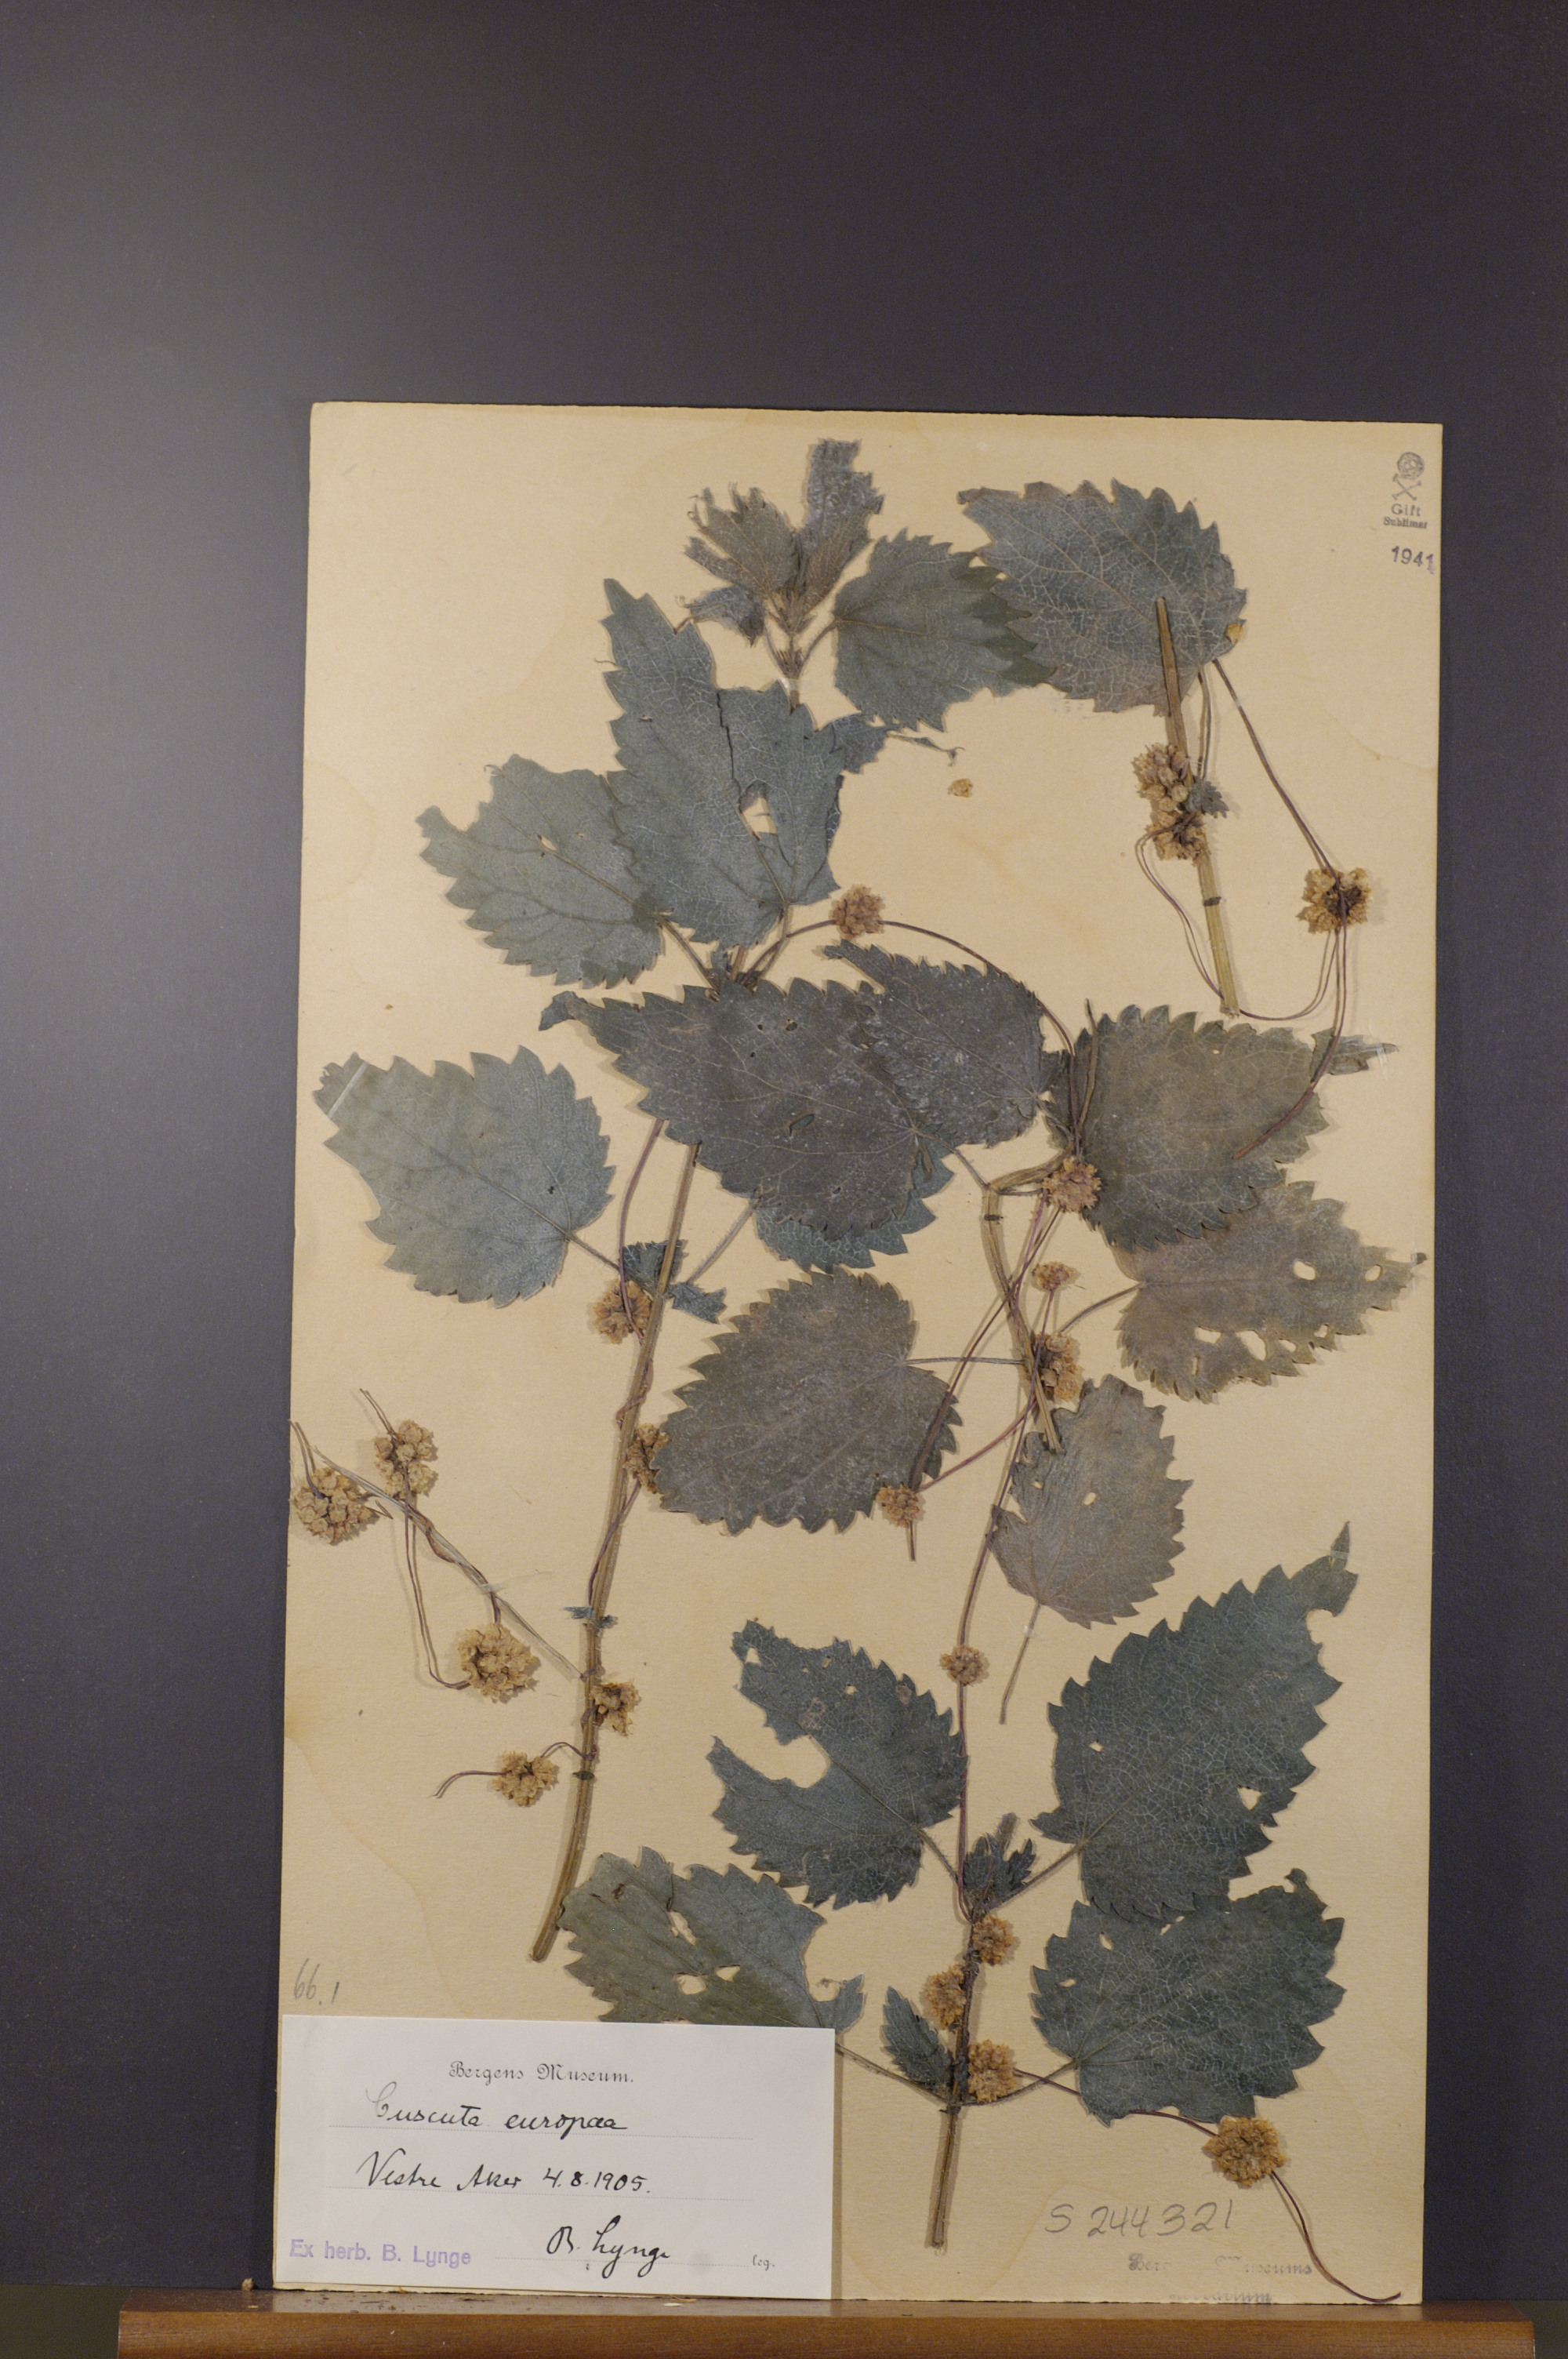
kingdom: Plantae
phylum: Tracheophyta
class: Magnoliopsida
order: Solanales
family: Convolvulaceae
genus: Cuscuta
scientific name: Cuscuta europaea
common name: Greater dodder
